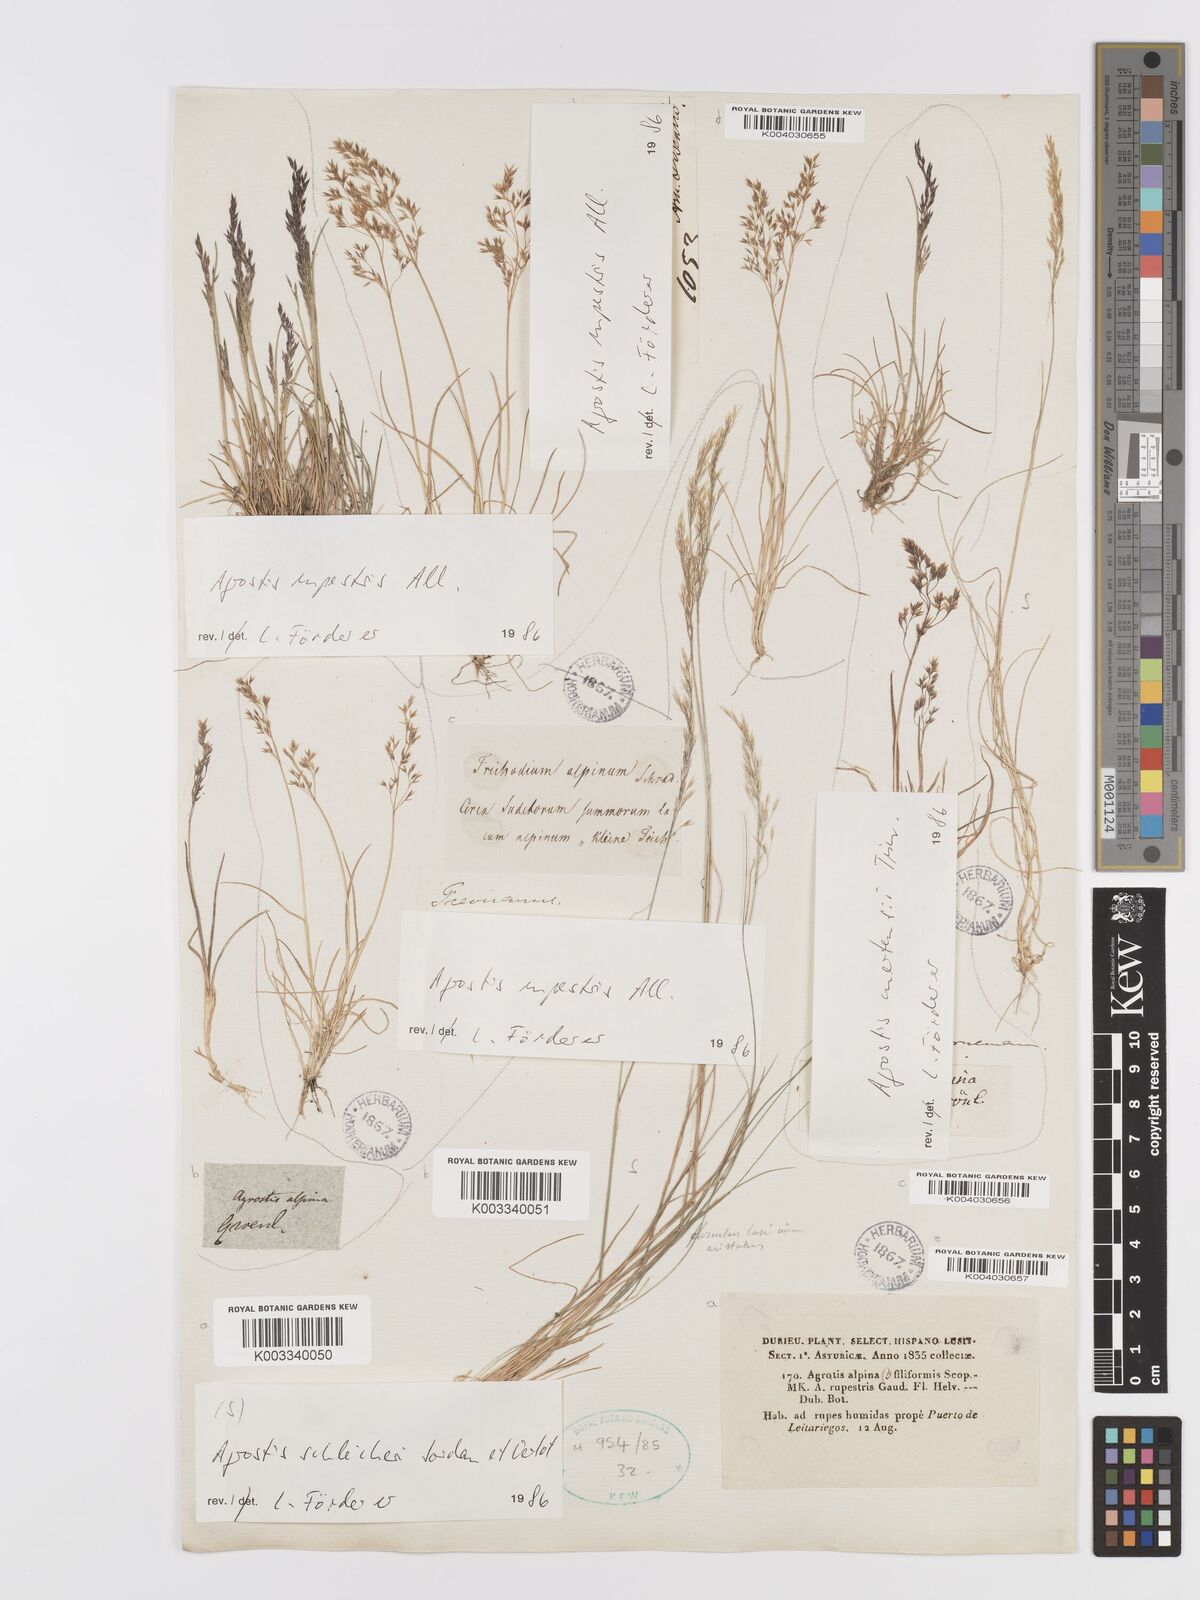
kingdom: Plantae
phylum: Tracheophyta
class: Liliopsida
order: Poales
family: Poaceae
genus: Alpagrostis
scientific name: Alpagrostis schleicheri
